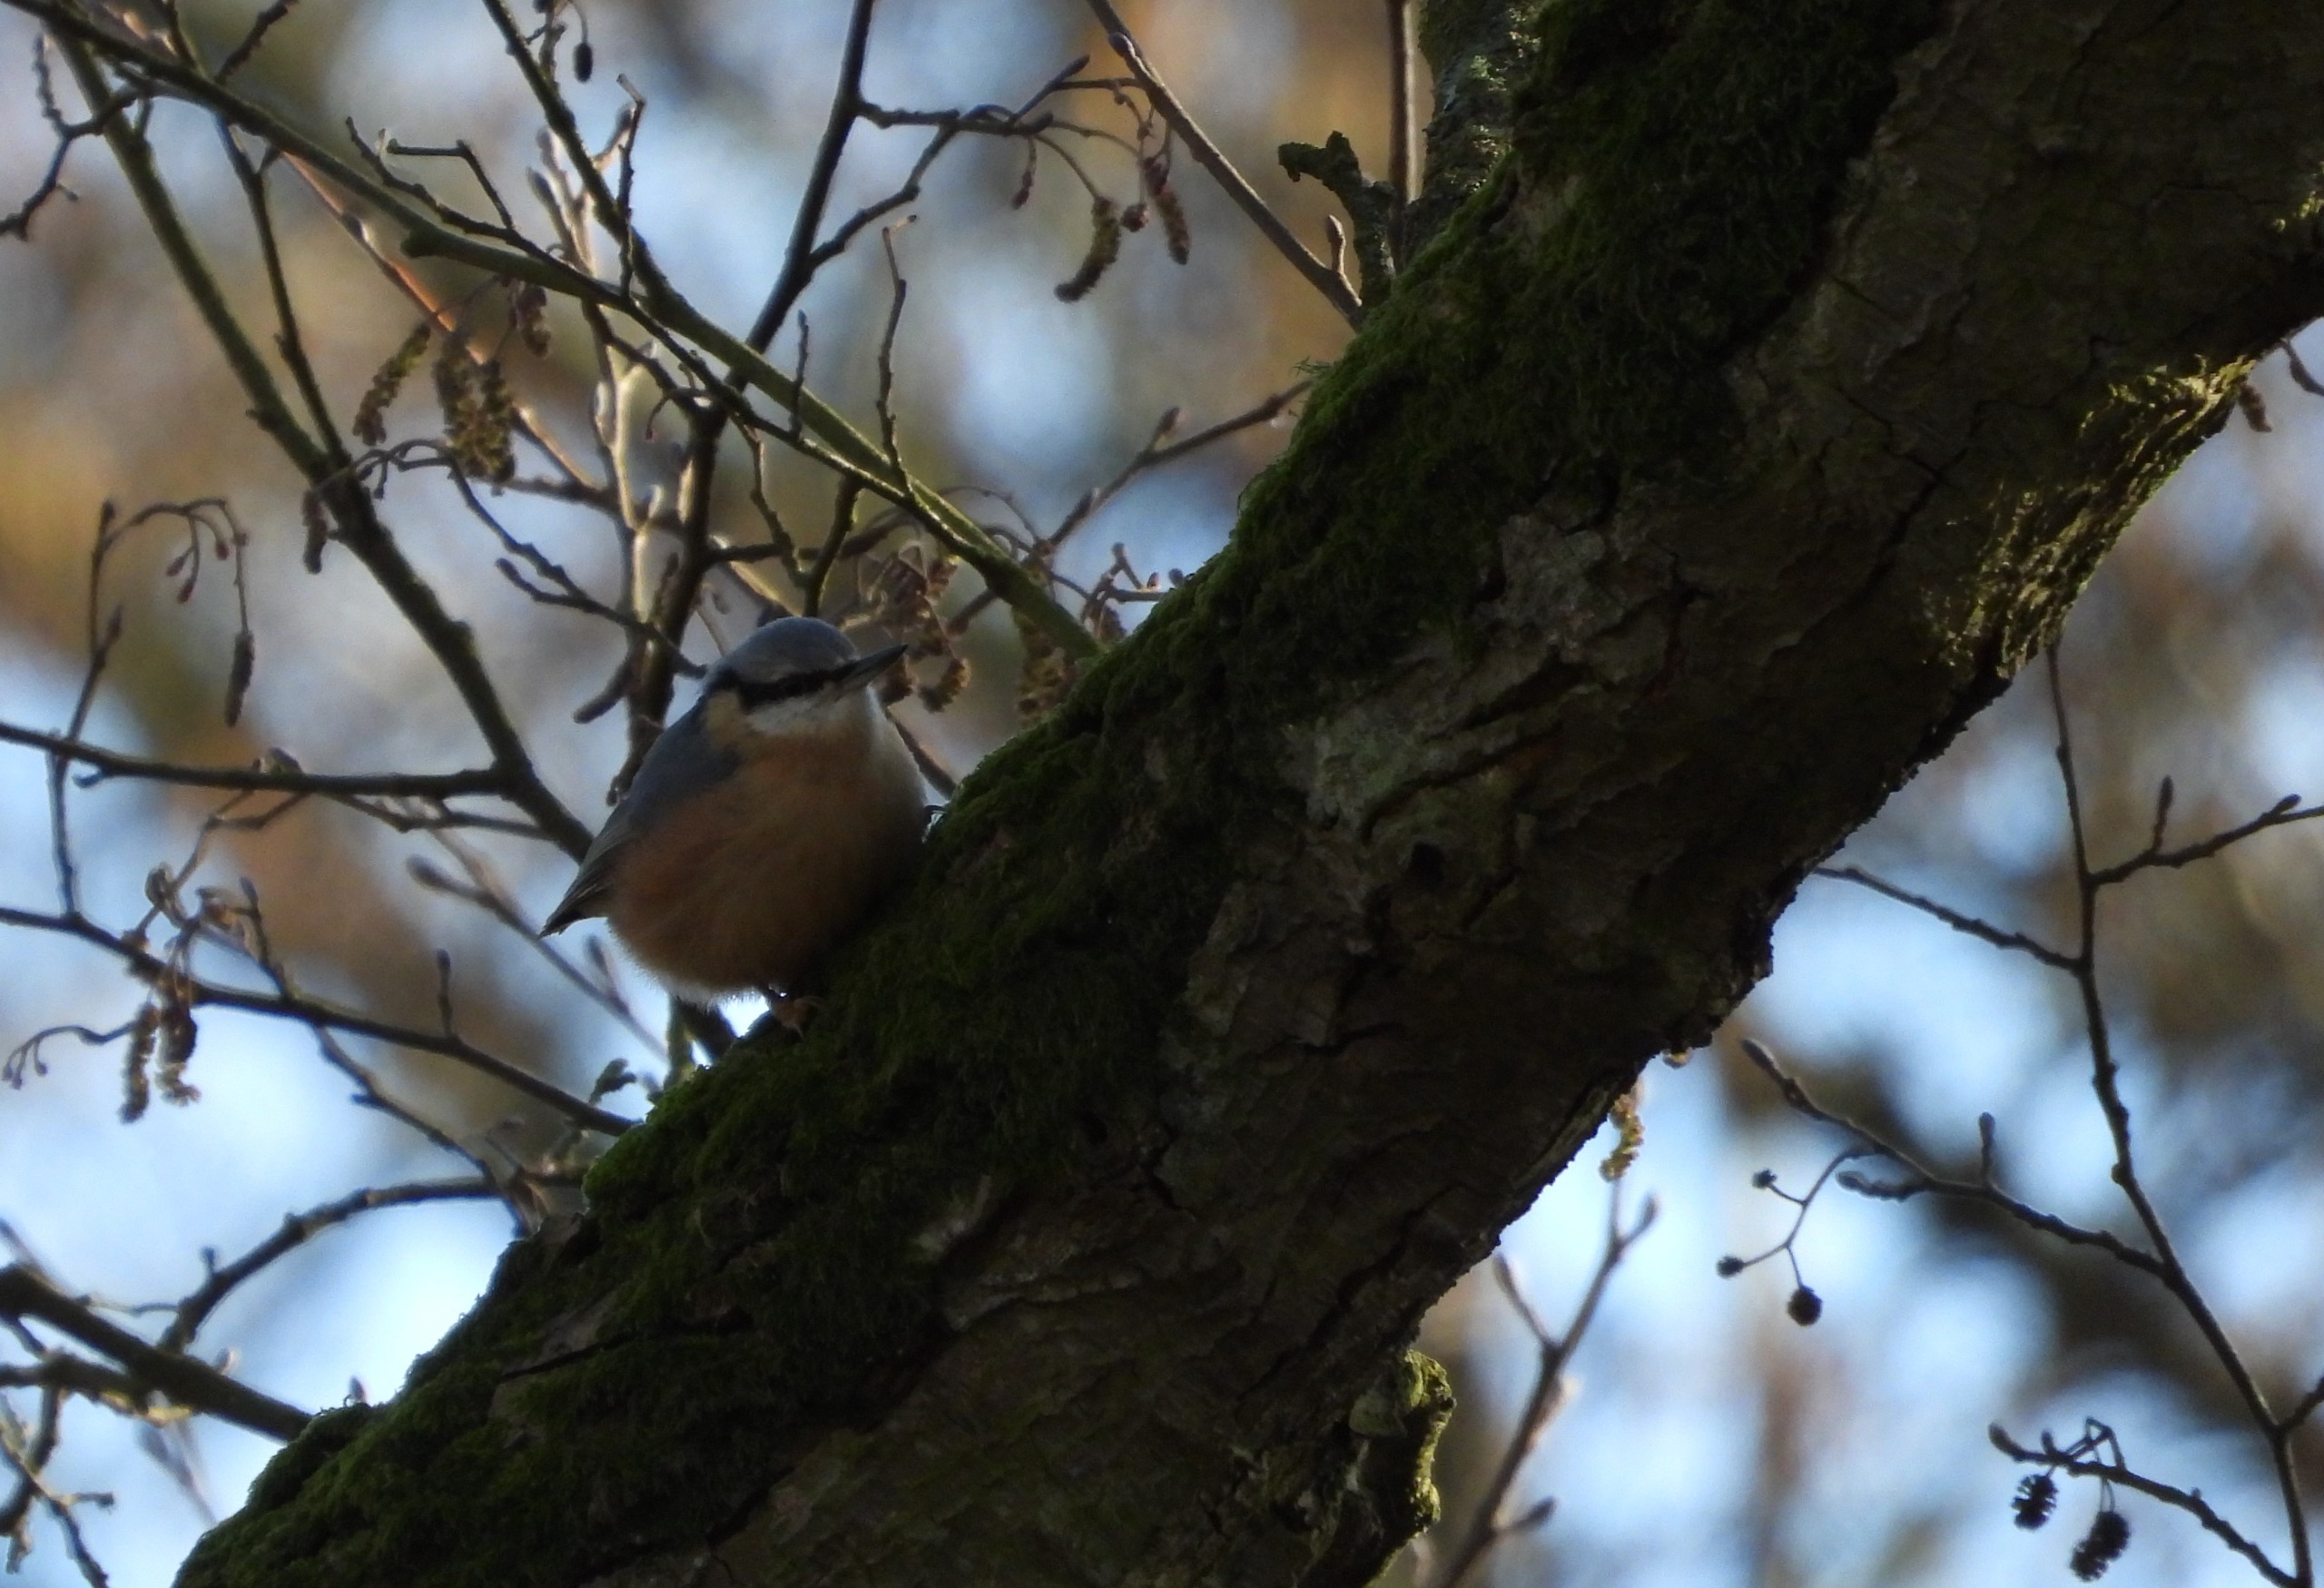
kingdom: Animalia
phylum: Chordata
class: Aves
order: Passeriformes
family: Sittidae
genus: Sitta
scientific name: Sitta europaea
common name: Spætmejse
